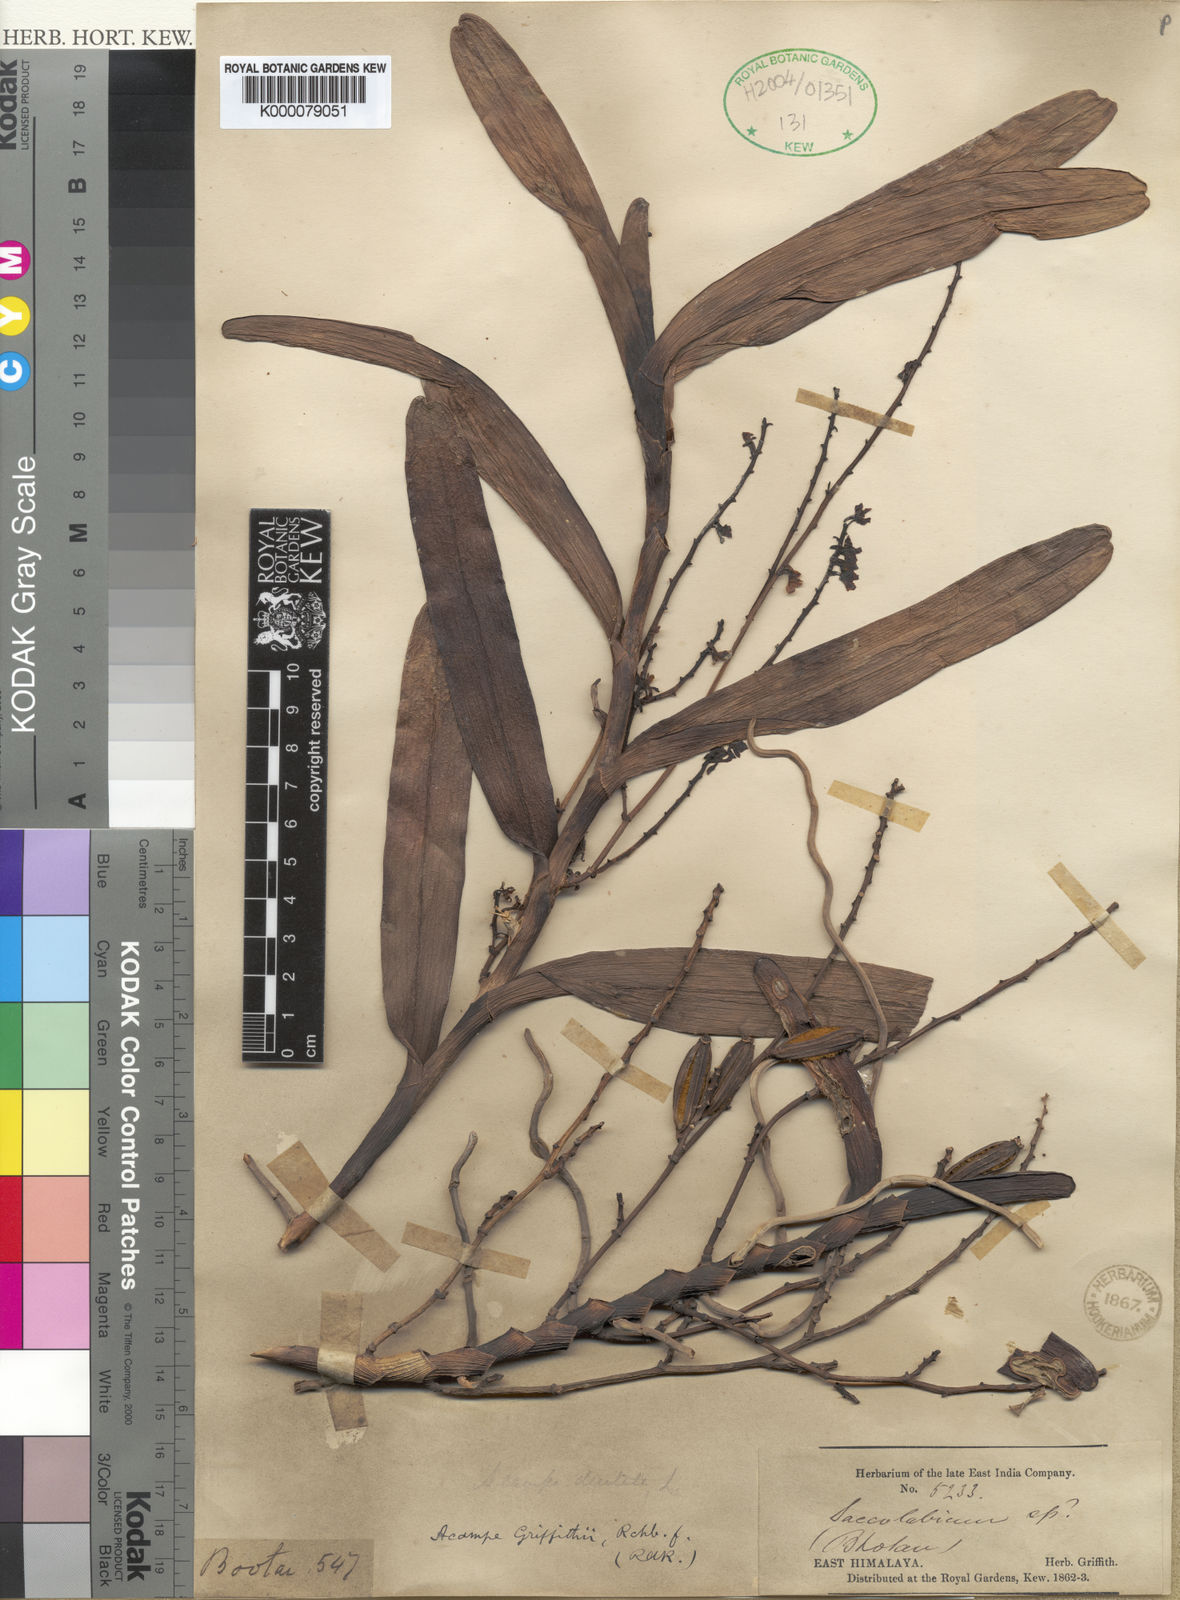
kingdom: Plantae
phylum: Tracheophyta
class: Liliopsida
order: Asparagales
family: Orchidaceae
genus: Acampe
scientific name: Acampe ochracea
